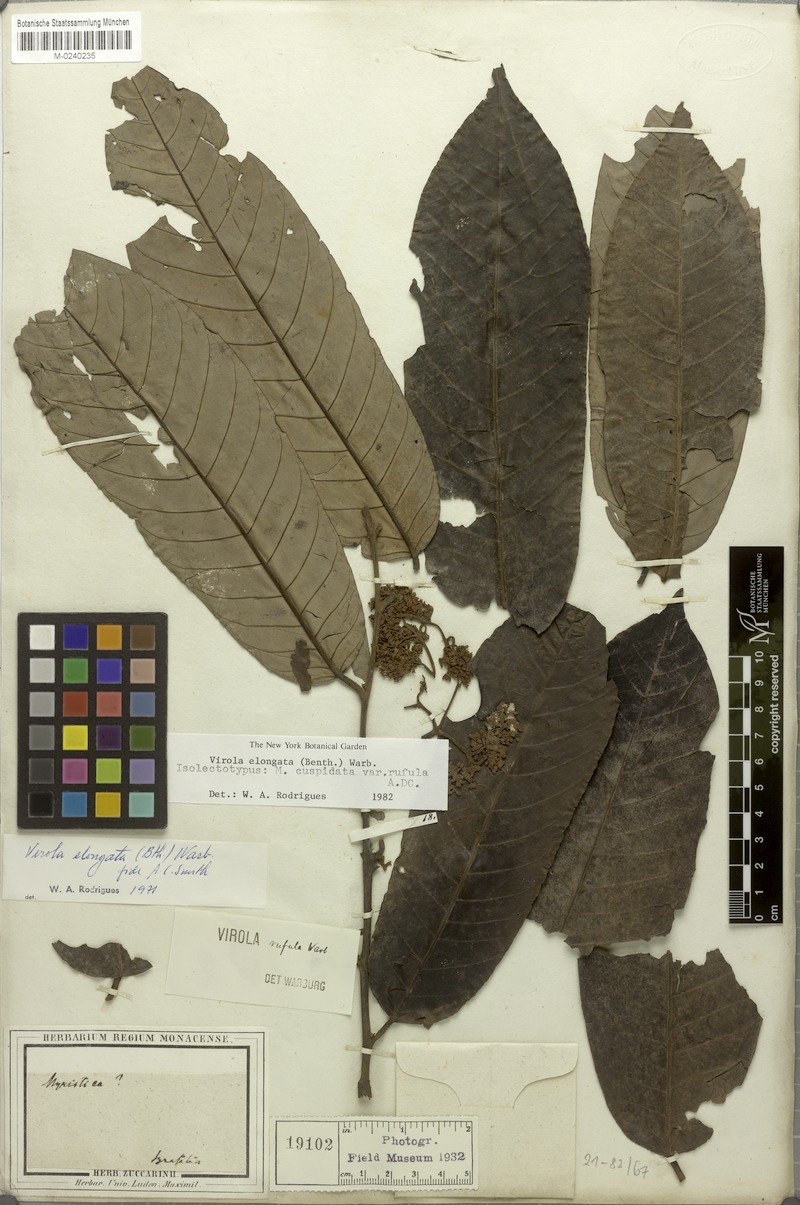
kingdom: Plantae
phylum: Tracheophyta
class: Magnoliopsida
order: Magnoliales
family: Myristicaceae
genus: Virola
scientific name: Virola elongata
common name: Sacred virola
